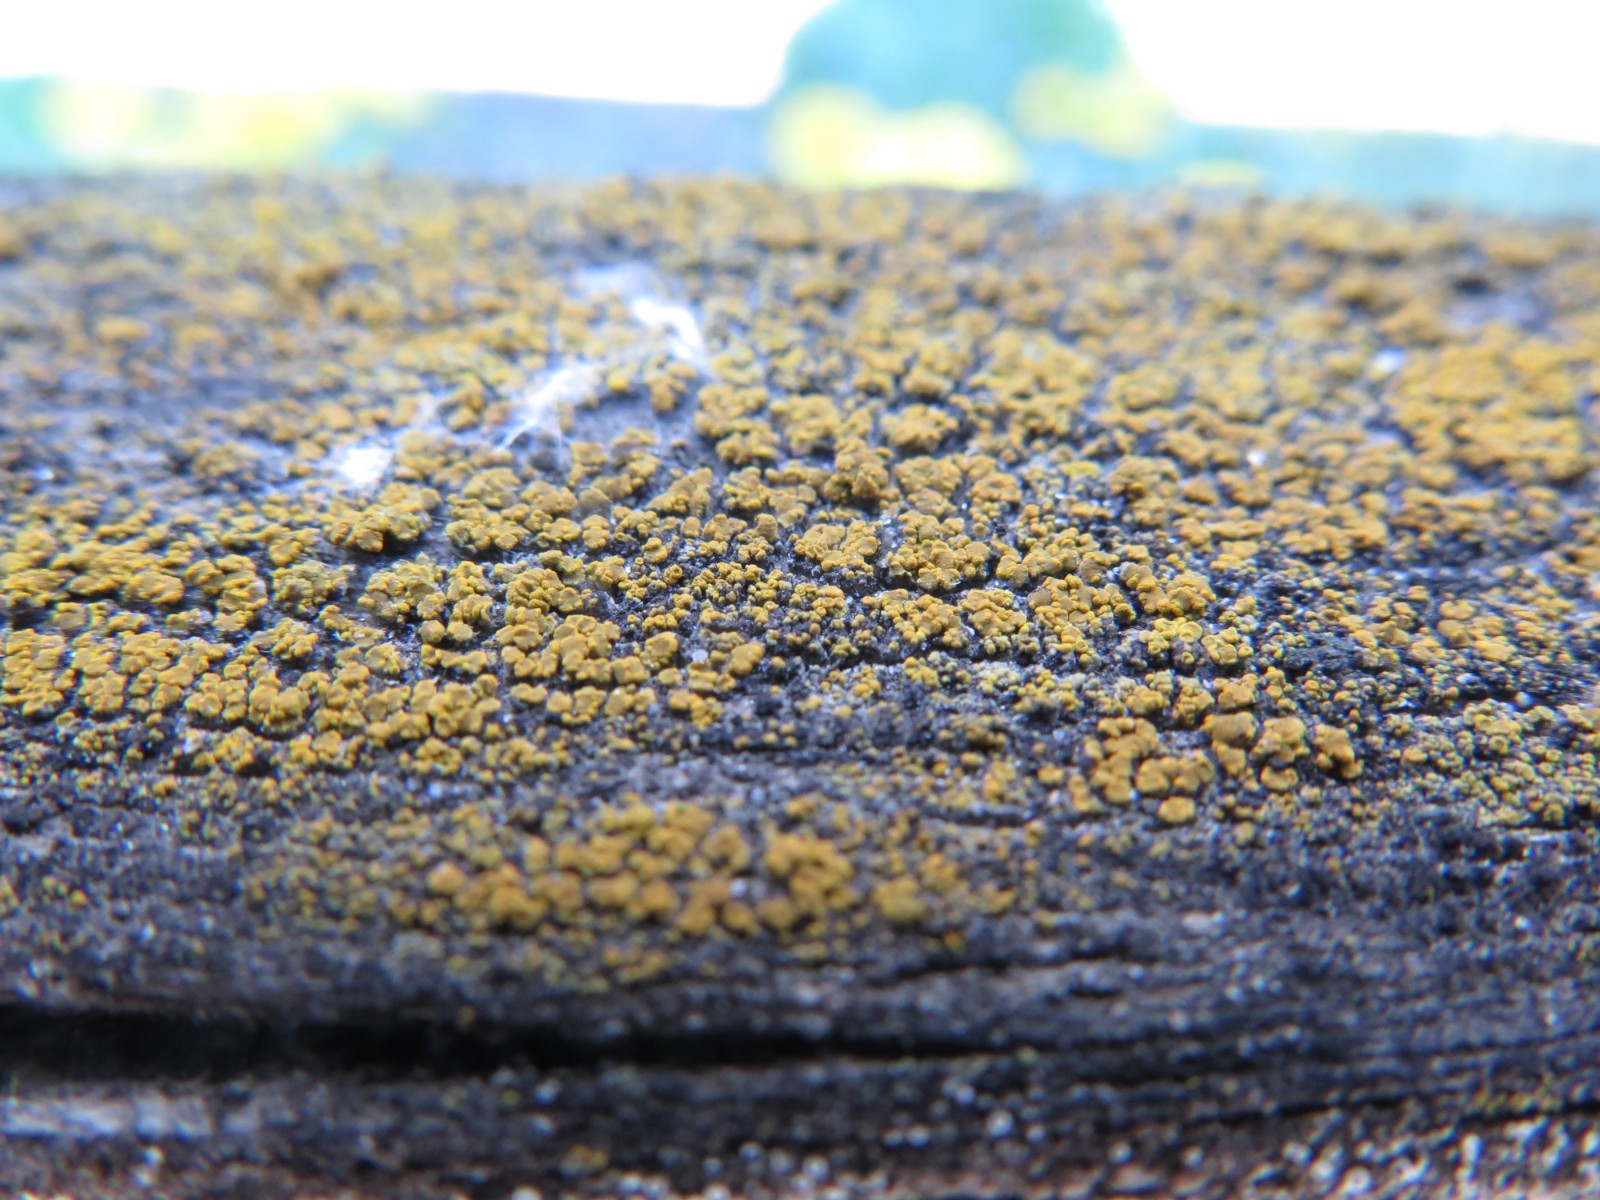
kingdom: Fungi
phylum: Ascomycota
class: Candelariomycetes
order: Candelariales
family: Candelariaceae
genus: Candelariella
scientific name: Candelariella aurella
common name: liden æggeblommelav
